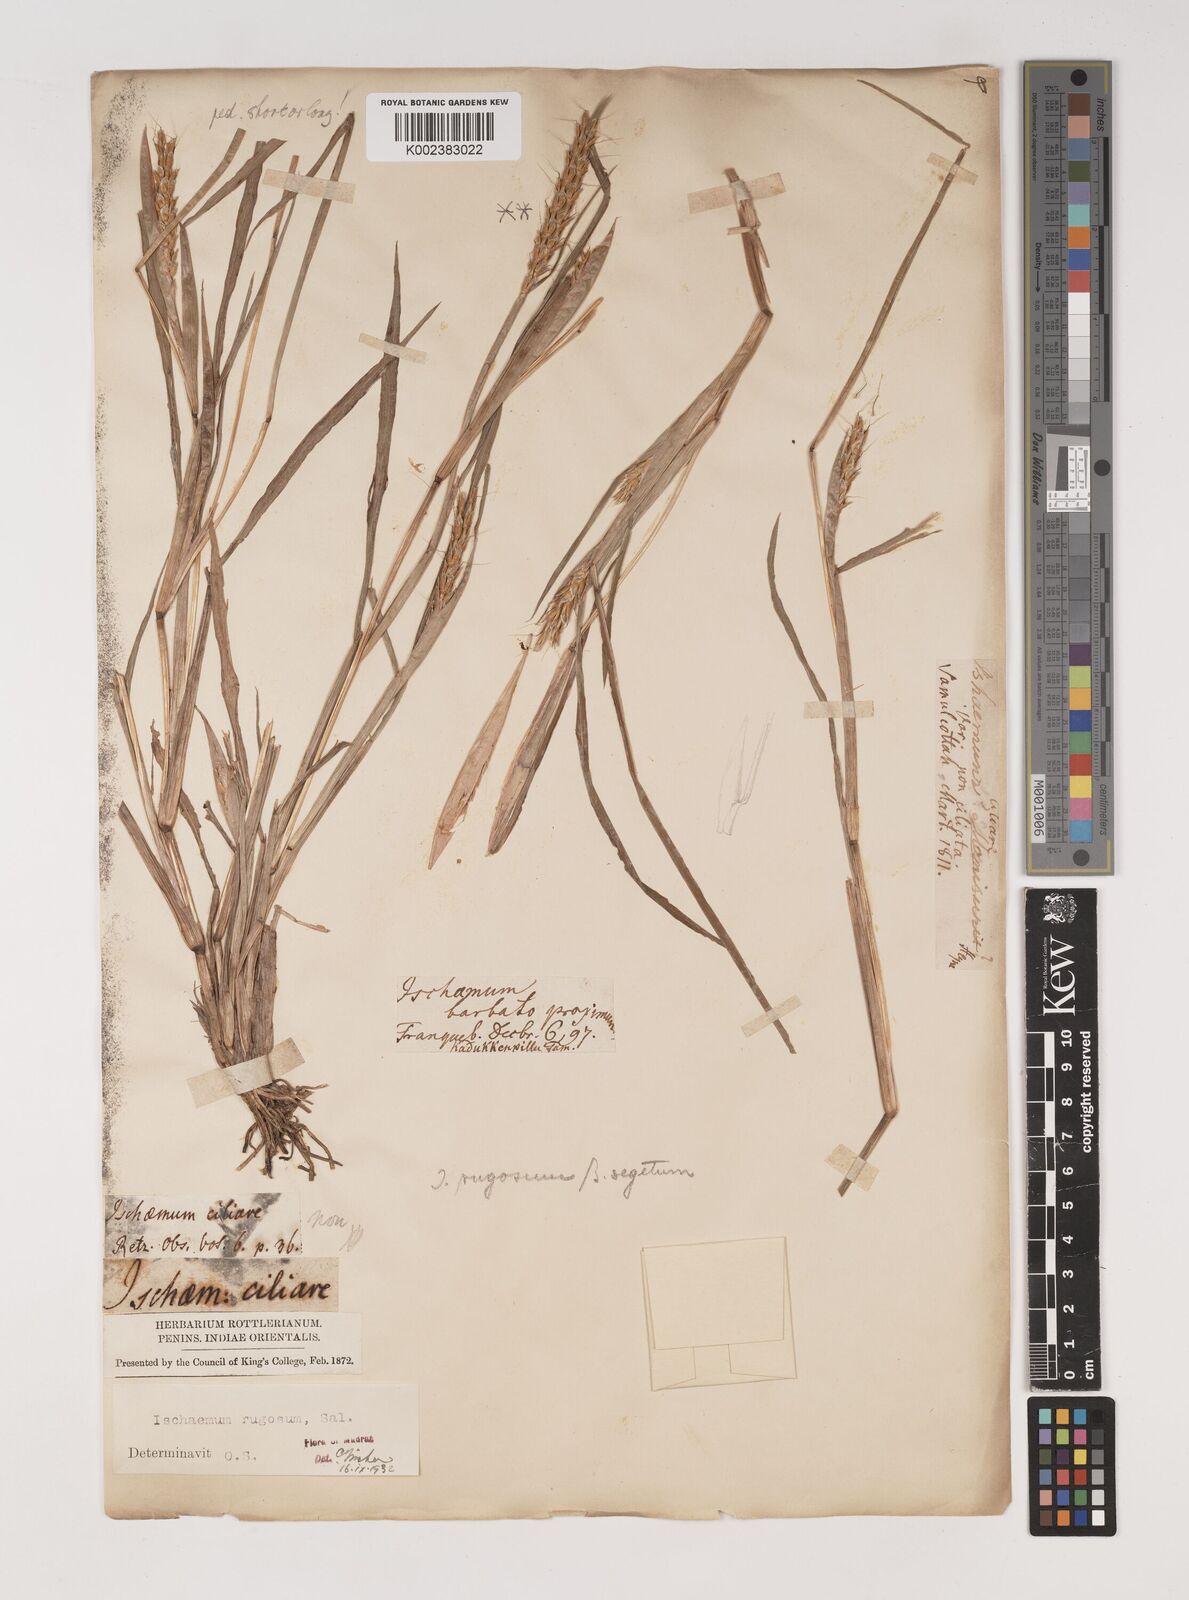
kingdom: Plantae
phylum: Tracheophyta
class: Liliopsida
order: Poales
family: Poaceae
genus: Ischaemum
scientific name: Ischaemum rugosum
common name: Saramatta grass
